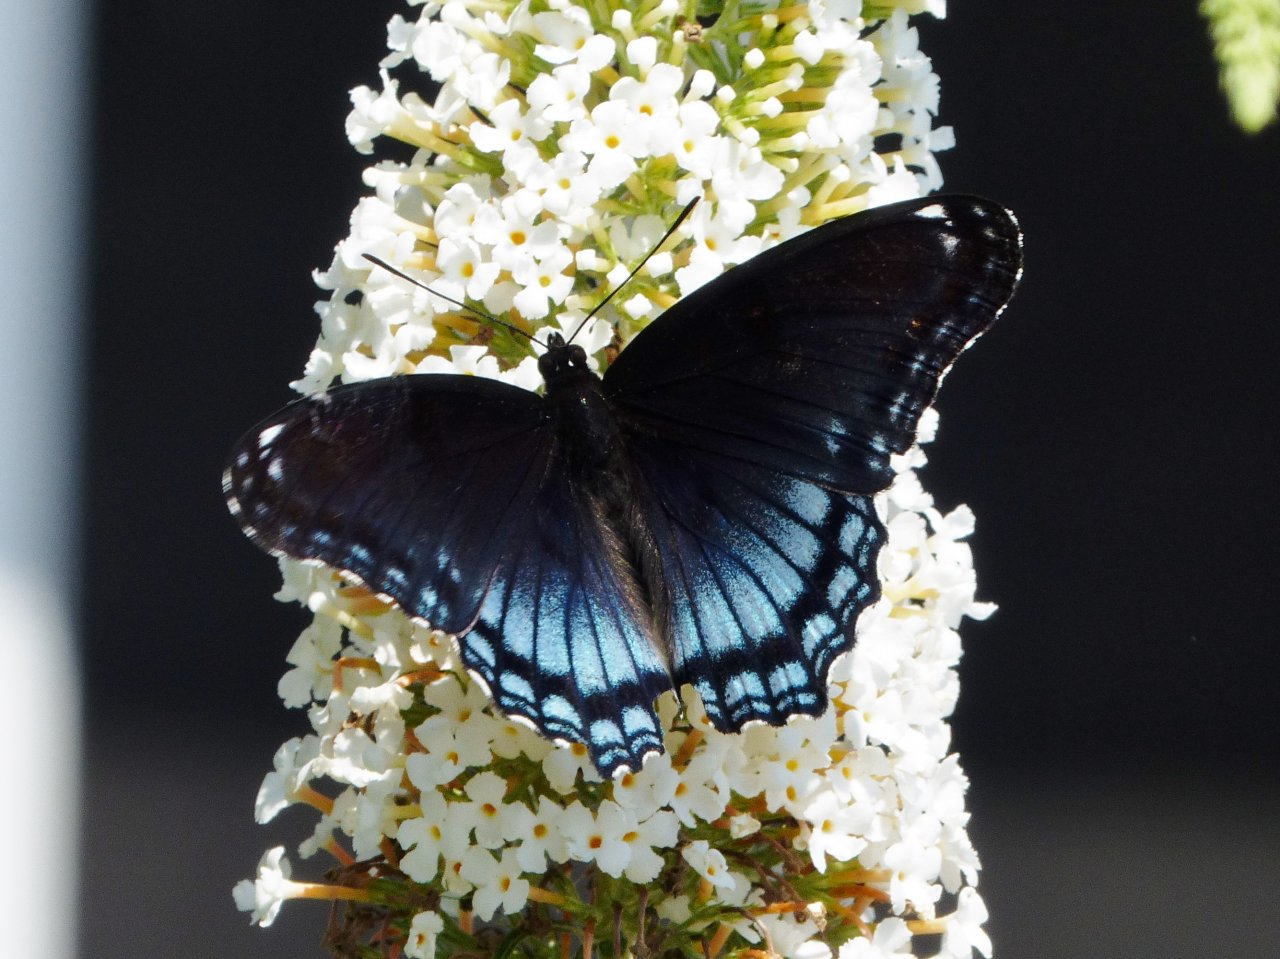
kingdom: Animalia
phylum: Arthropoda
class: Insecta
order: Lepidoptera
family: Nymphalidae
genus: Limenitis
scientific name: Limenitis astyanax
